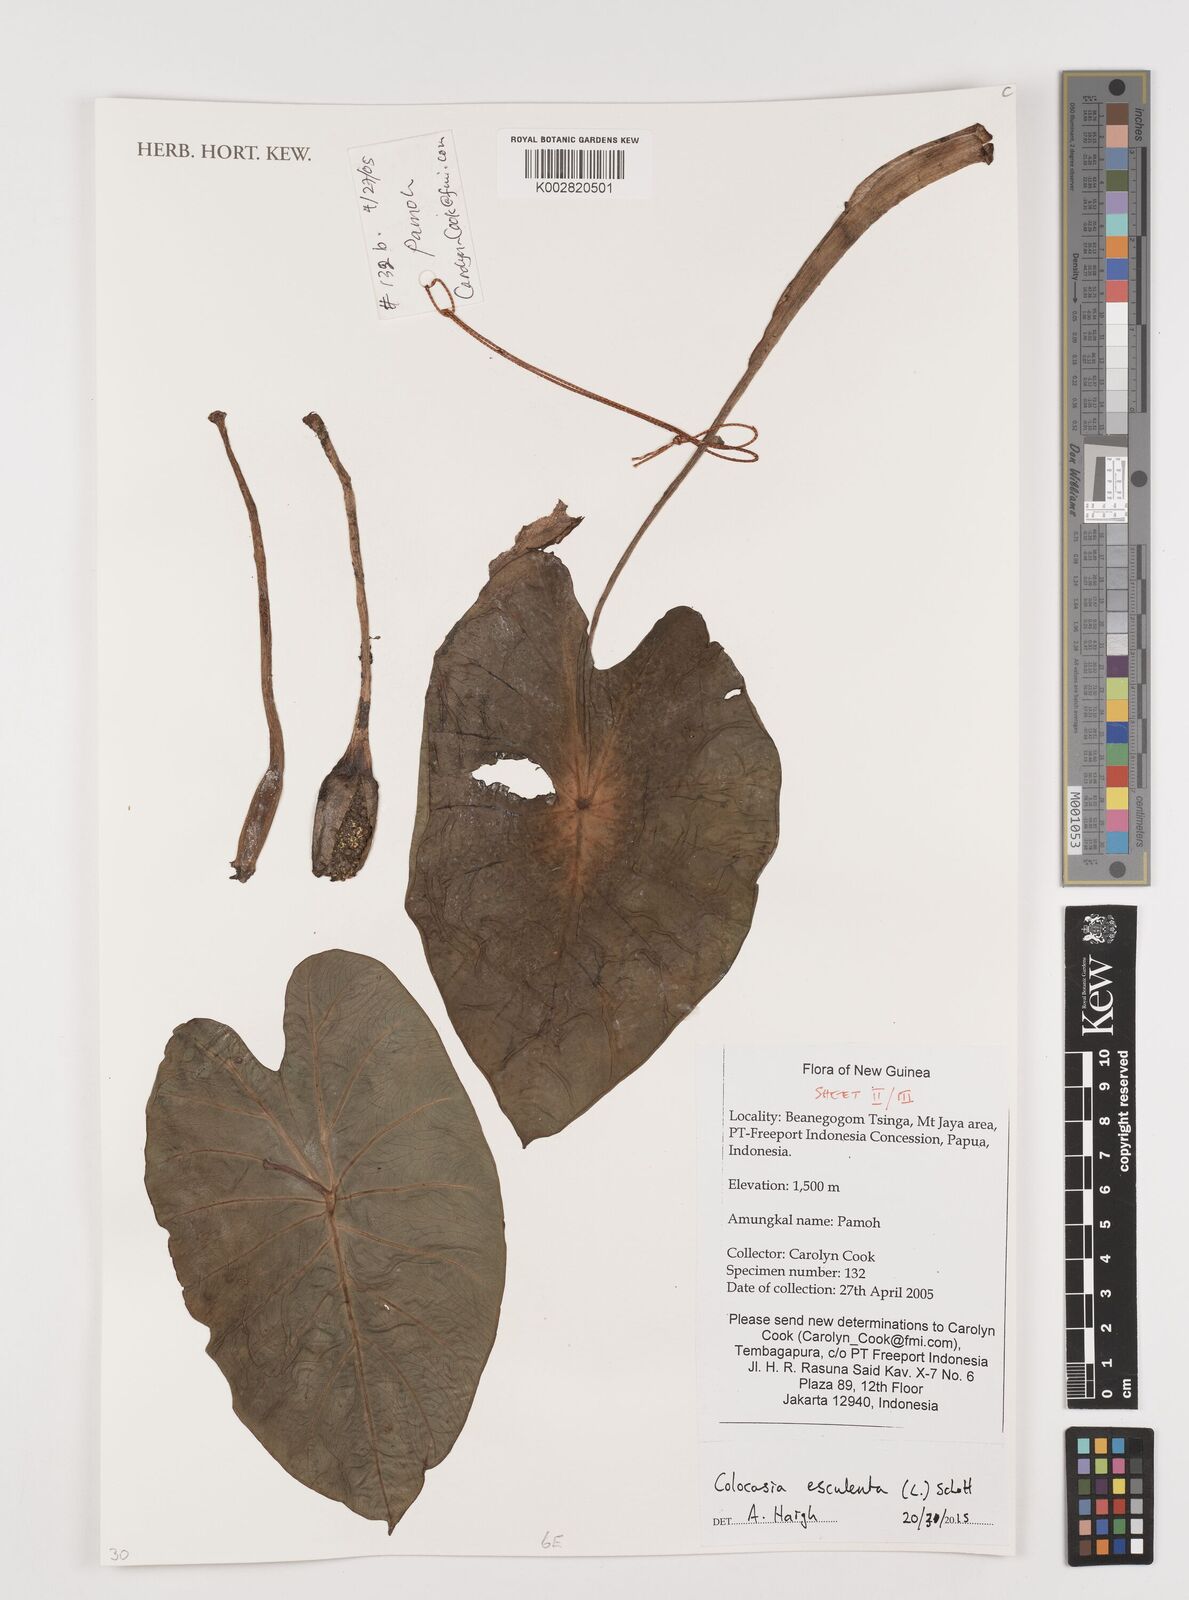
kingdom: Plantae
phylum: Tracheophyta
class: Liliopsida
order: Alismatales
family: Araceae
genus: Colocasia
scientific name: Colocasia esculenta
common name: Taro
